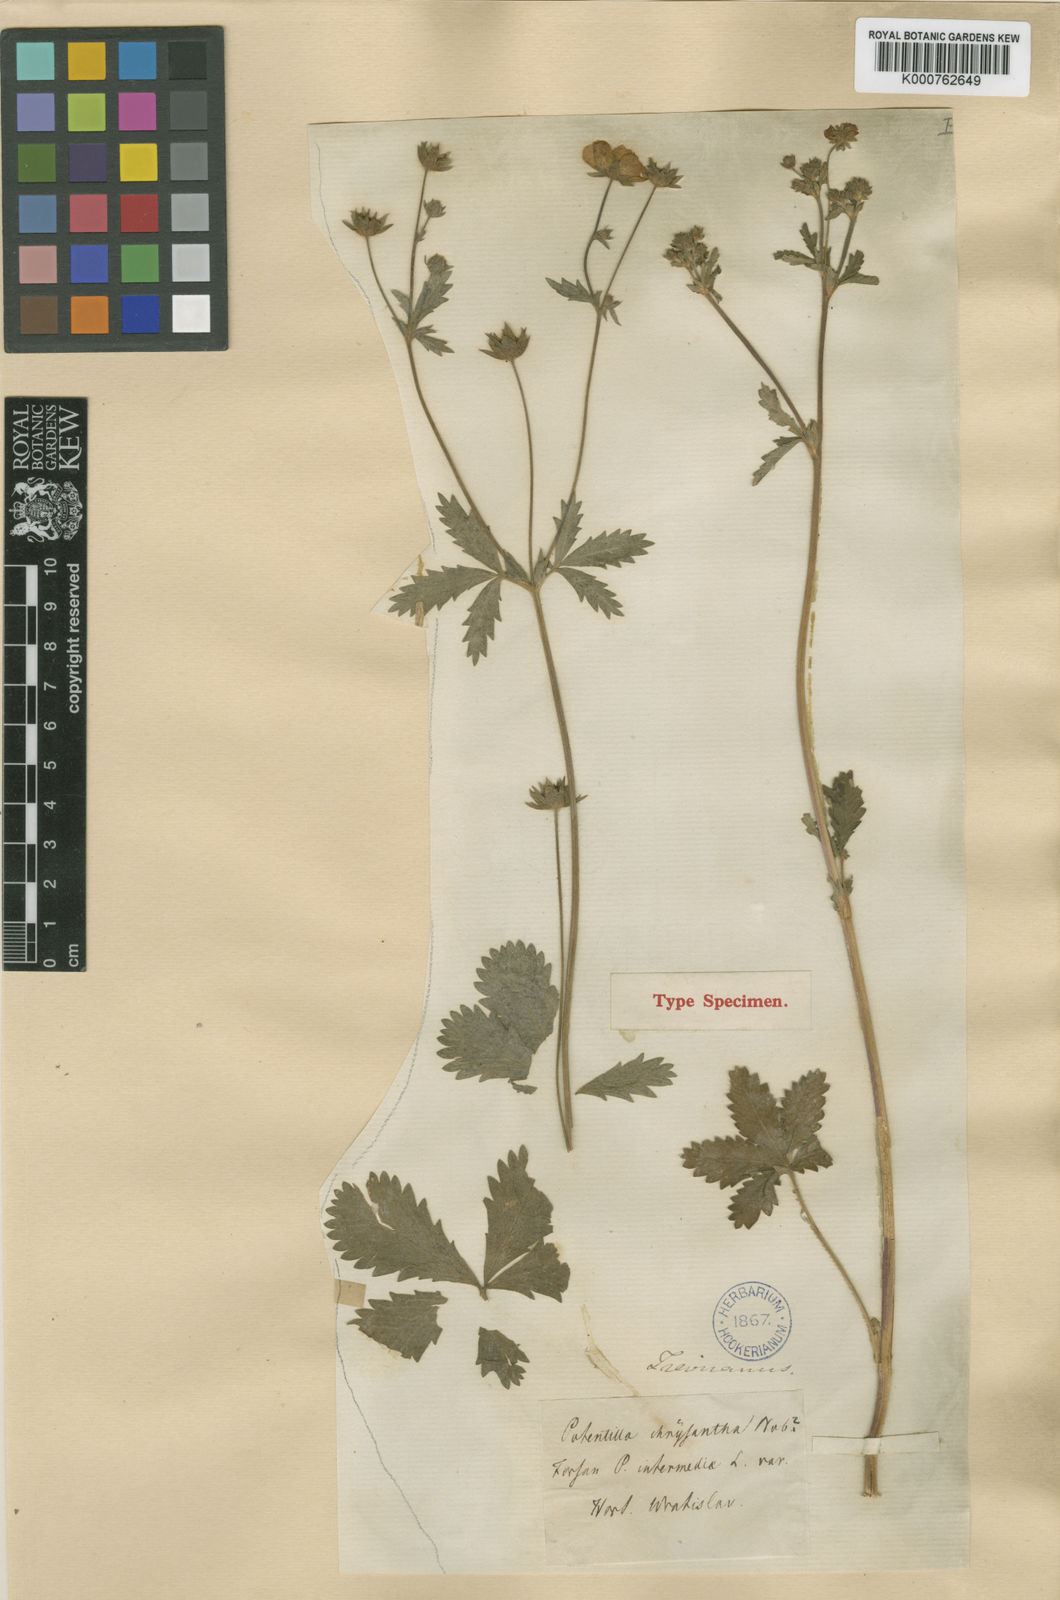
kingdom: Plantae
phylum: Tracheophyta
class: Magnoliopsida
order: Rosales
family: Rosaceae
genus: Potentilla
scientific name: Potentilla chrysantha
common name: Thuringian cinquefoil
